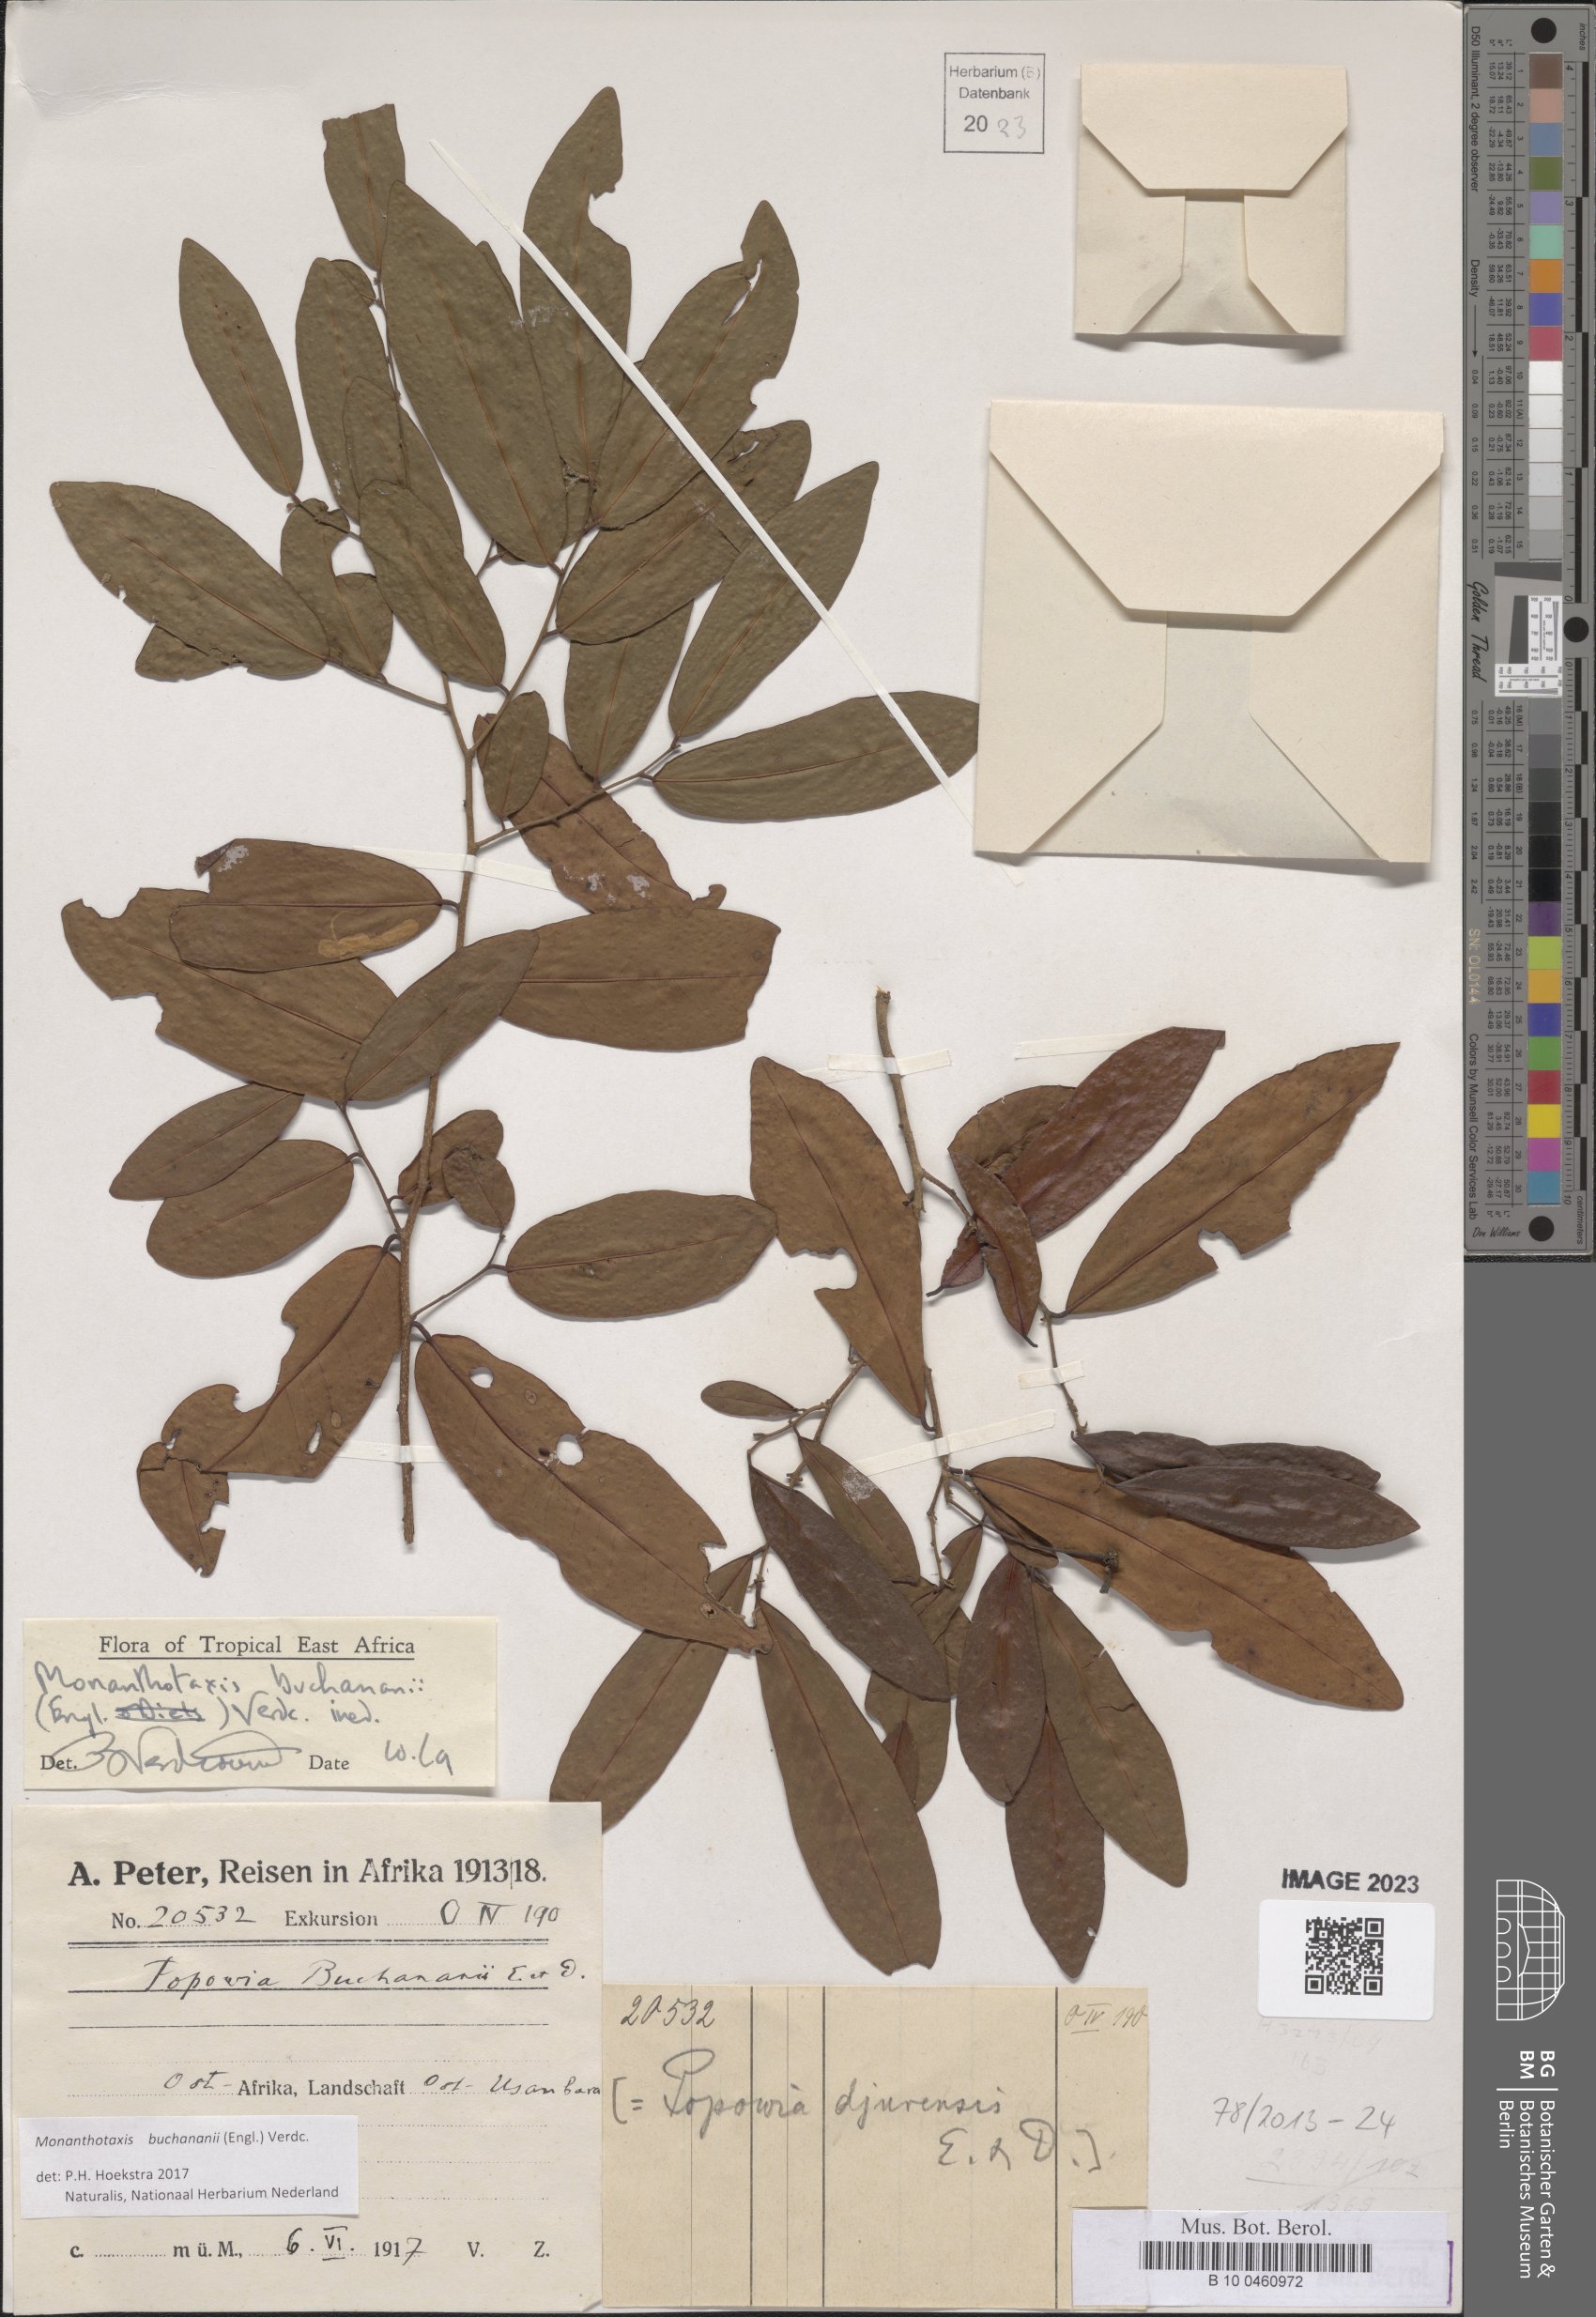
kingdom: Plantae
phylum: Tracheophyta
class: Magnoliopsida
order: Magnoliales
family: Annonaceae
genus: Monanthotaxis
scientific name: Monanthotaxis buchananii
